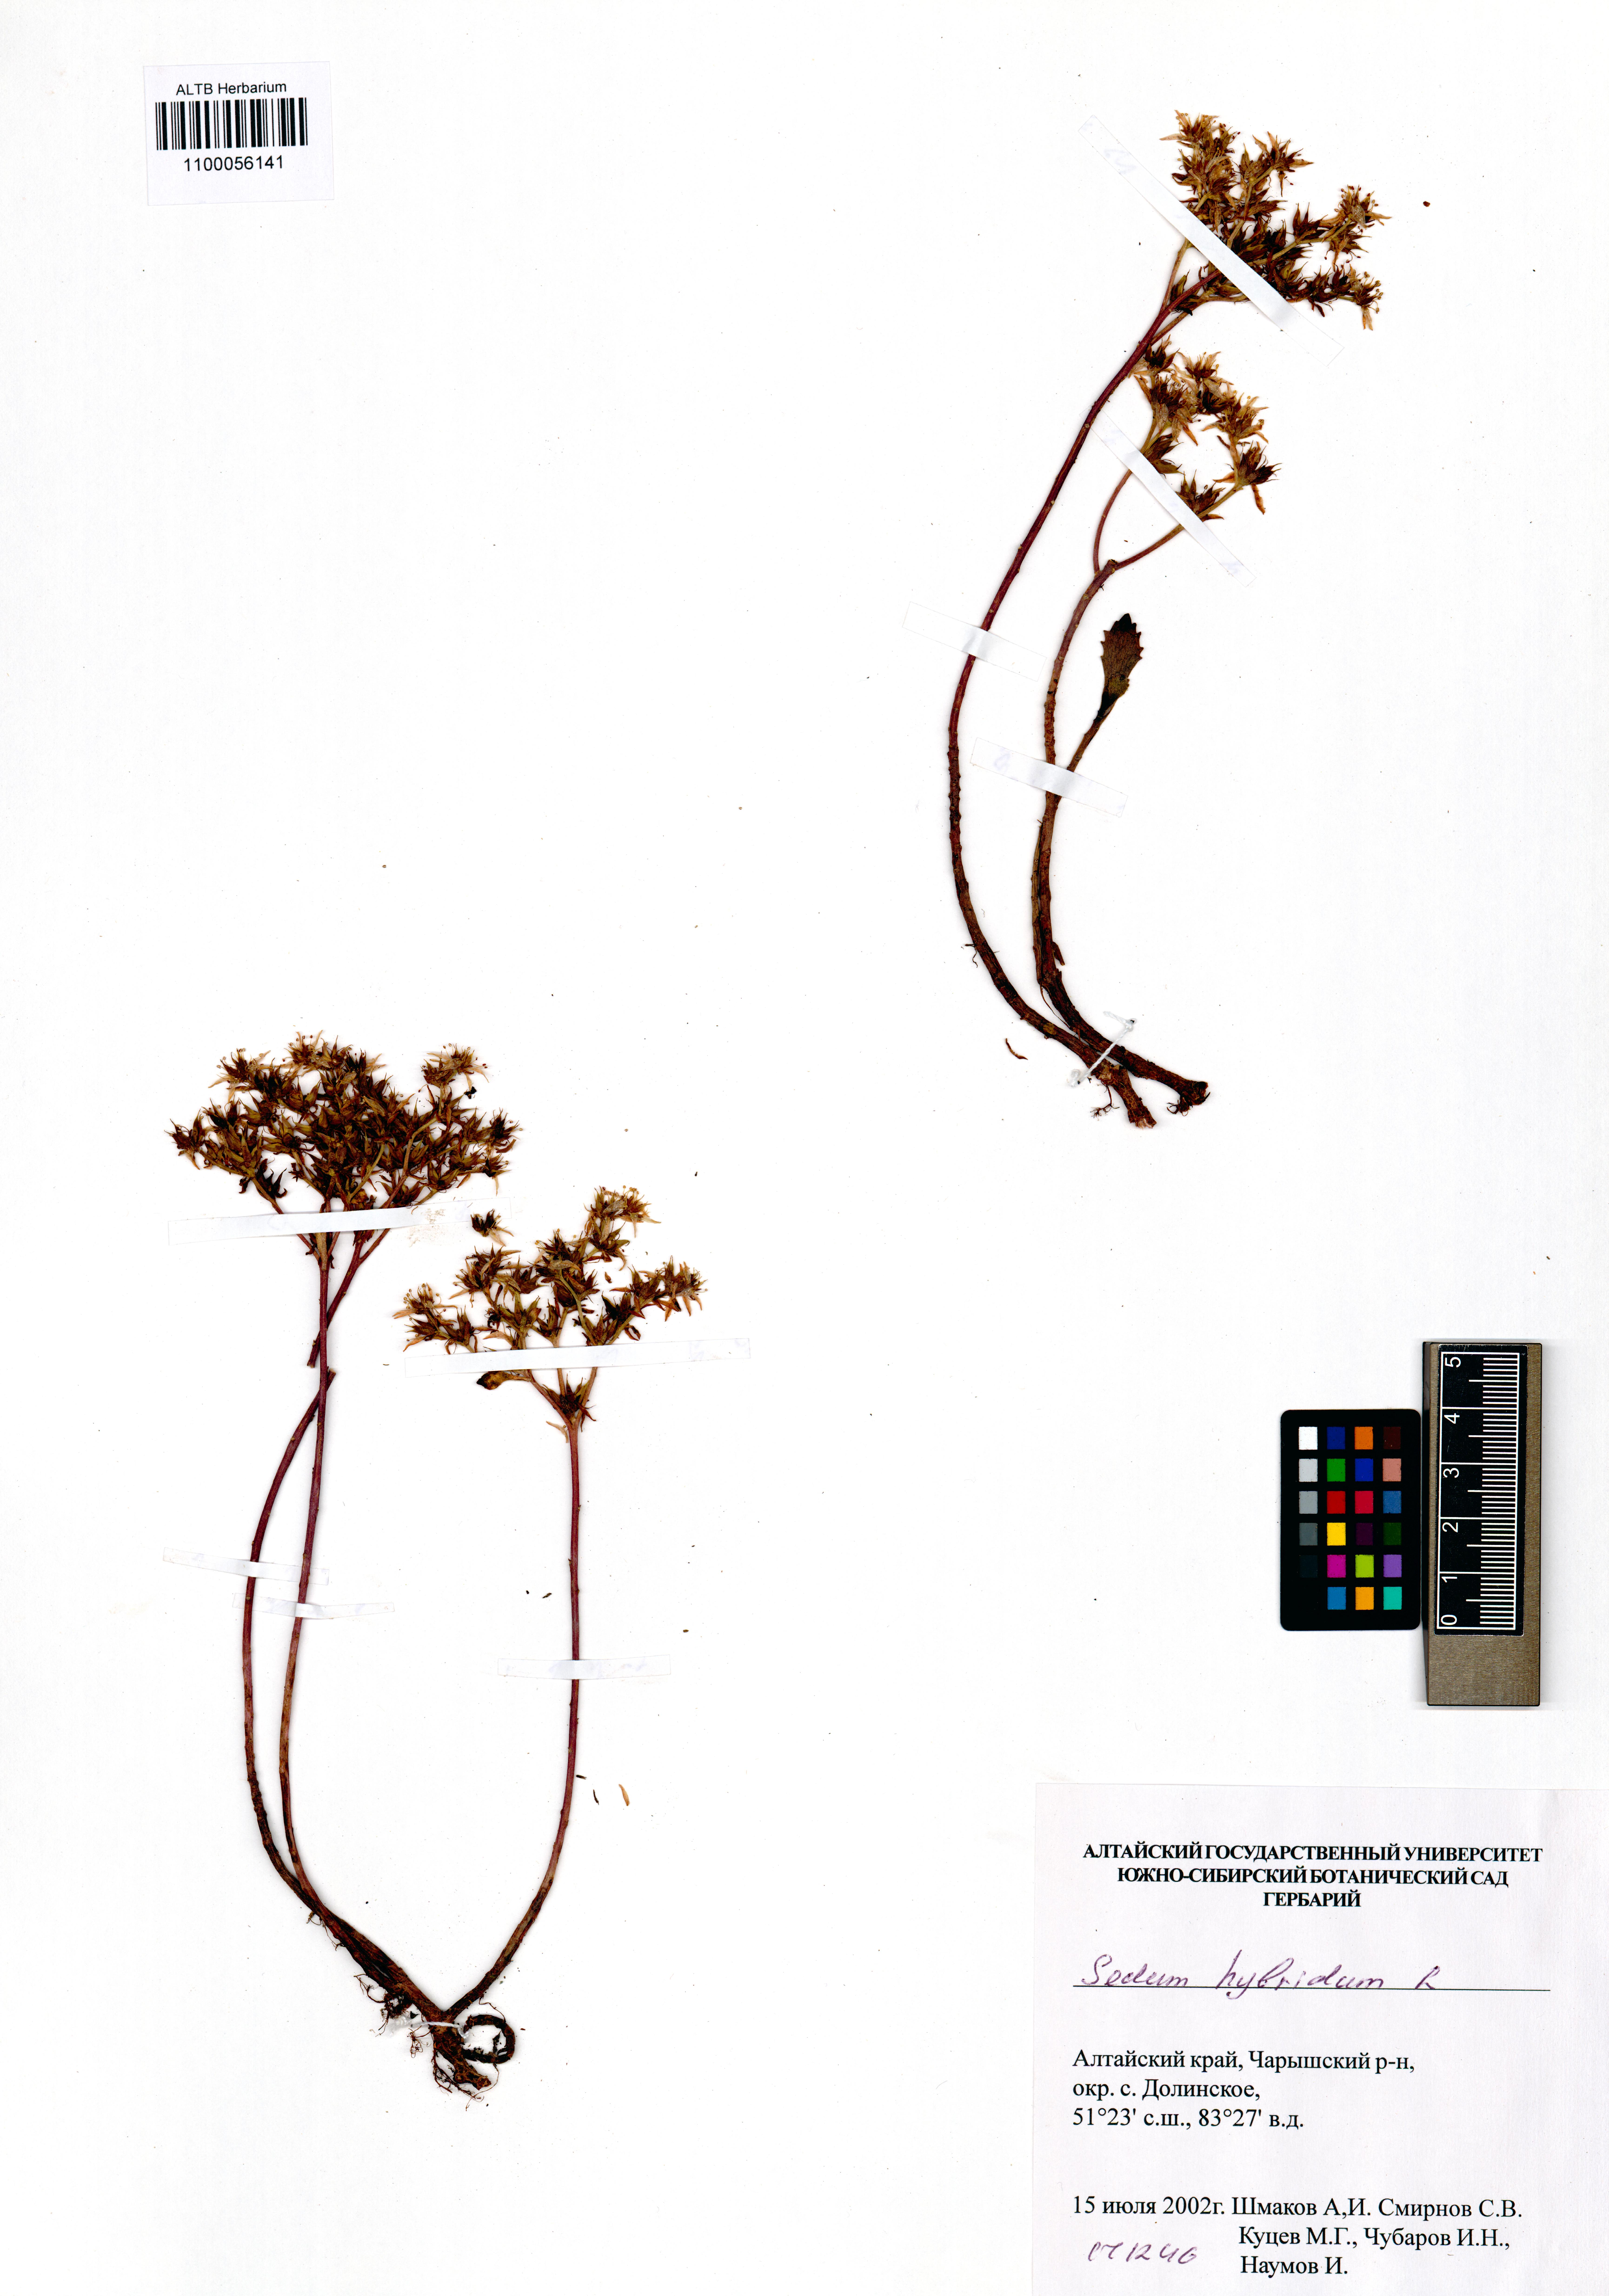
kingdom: Plantae
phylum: Tracheophyta
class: Magnoliopsida
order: Saxifragales
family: Crassulaceae
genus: Phedimus
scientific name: Phedimus hybridus
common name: Hybrid stonecrop
